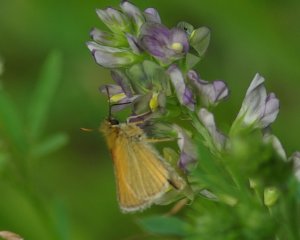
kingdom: Animalia
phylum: Arthropoda
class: Insecta
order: Lepidoptera
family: Hesperiidae
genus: Thymelicus
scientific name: Thymelicus lineola
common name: European Skipper
